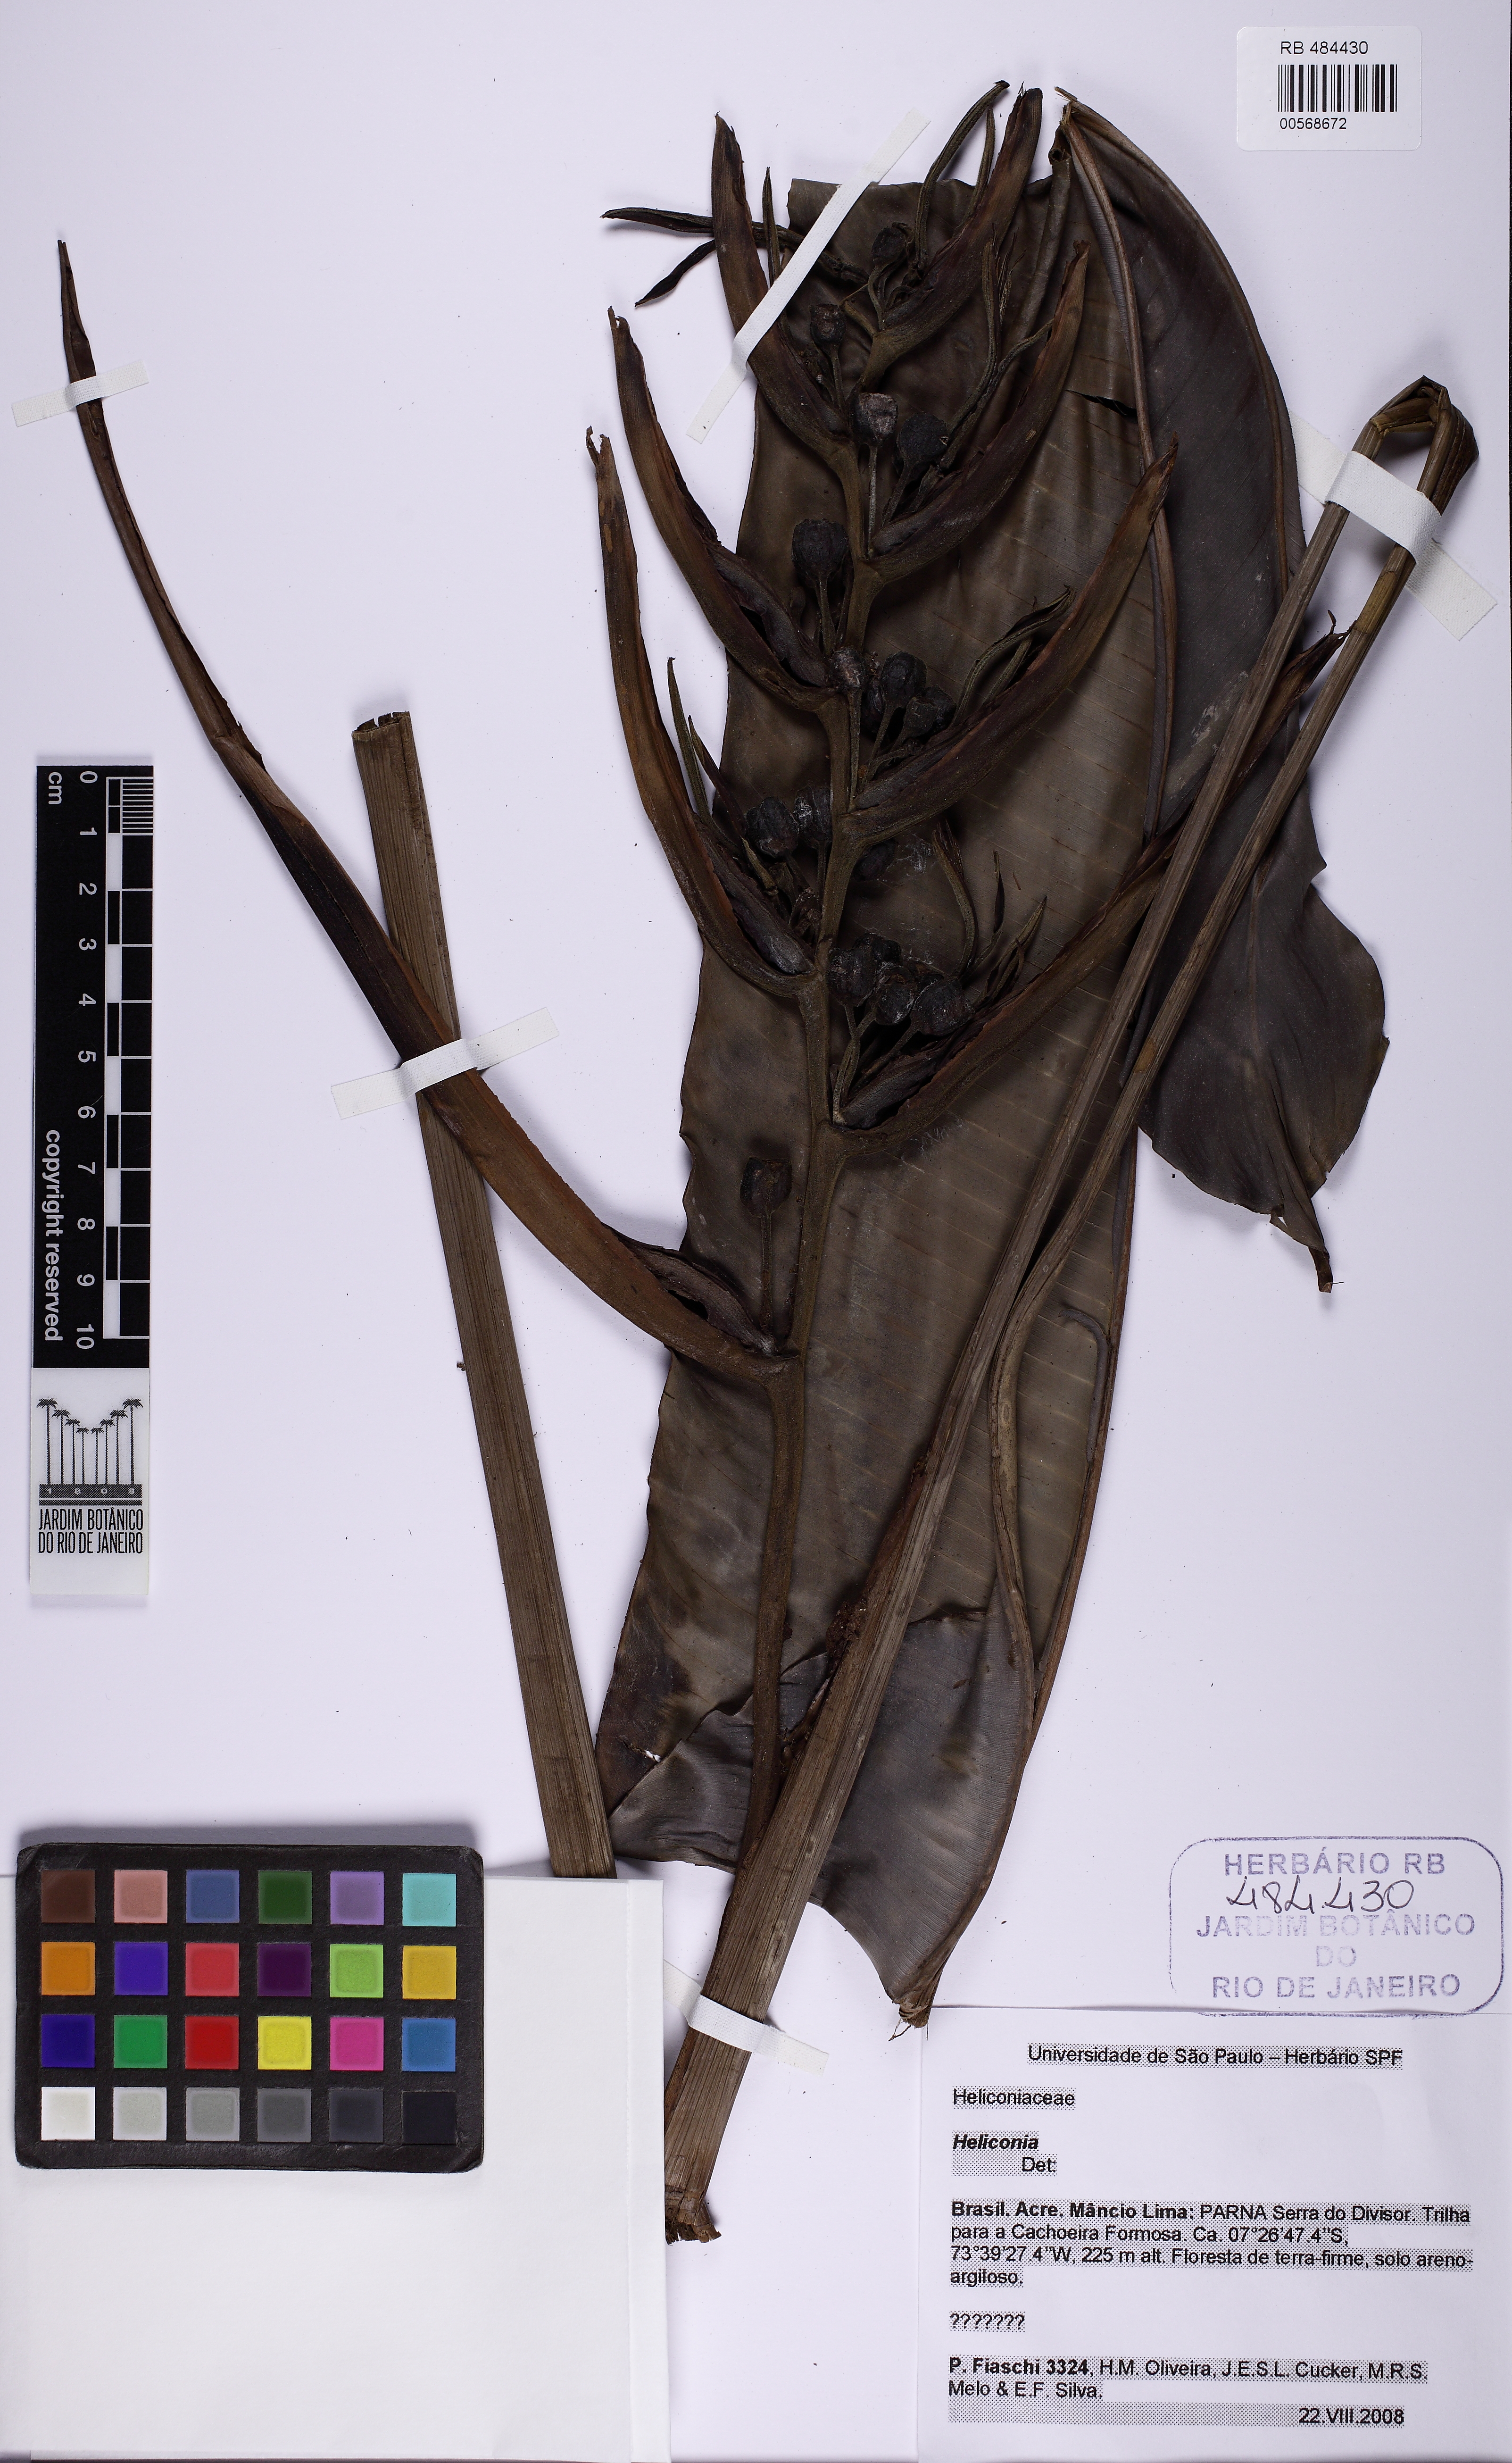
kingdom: Plantae
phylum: Tracheophyta
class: Liliopsida
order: Zingiberales
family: Heliconiaceae
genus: Heliconia
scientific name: Heliconia
